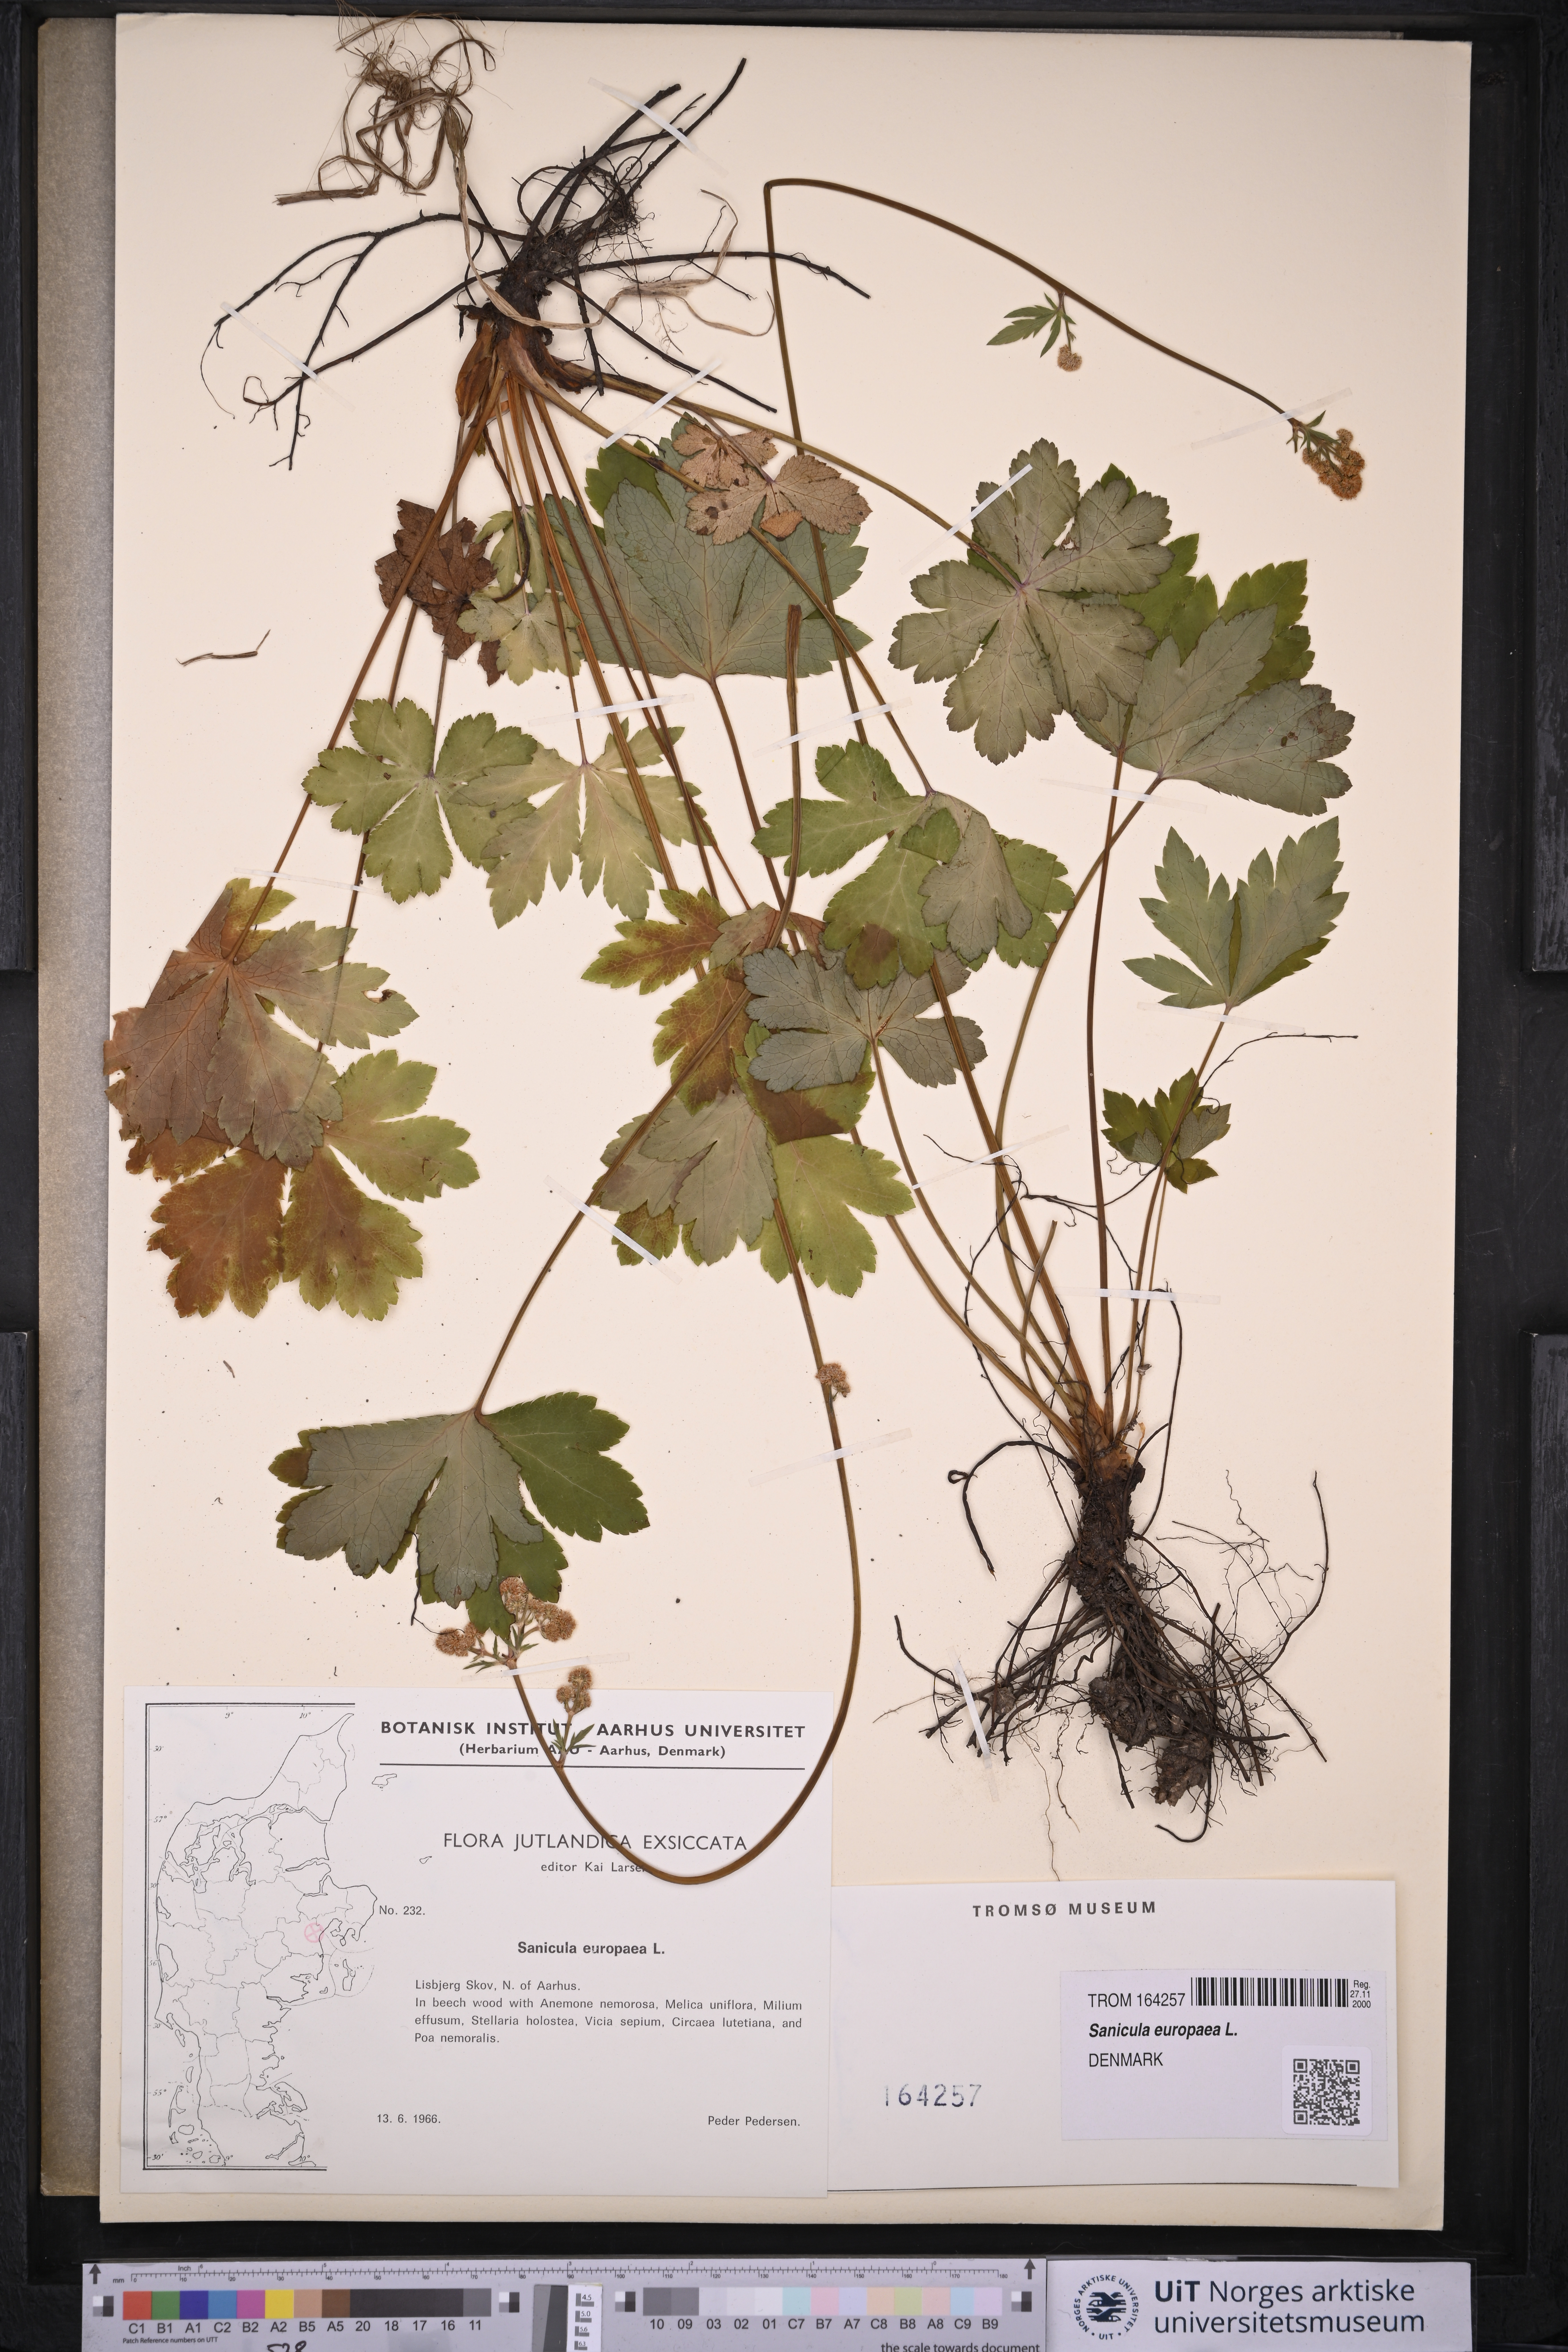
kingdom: Plantae
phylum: Tracheophyta
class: Magnoliopsida
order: Apiales
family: Apiaceae
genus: Sanicula
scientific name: Sanicula europaea
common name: Sanicle
